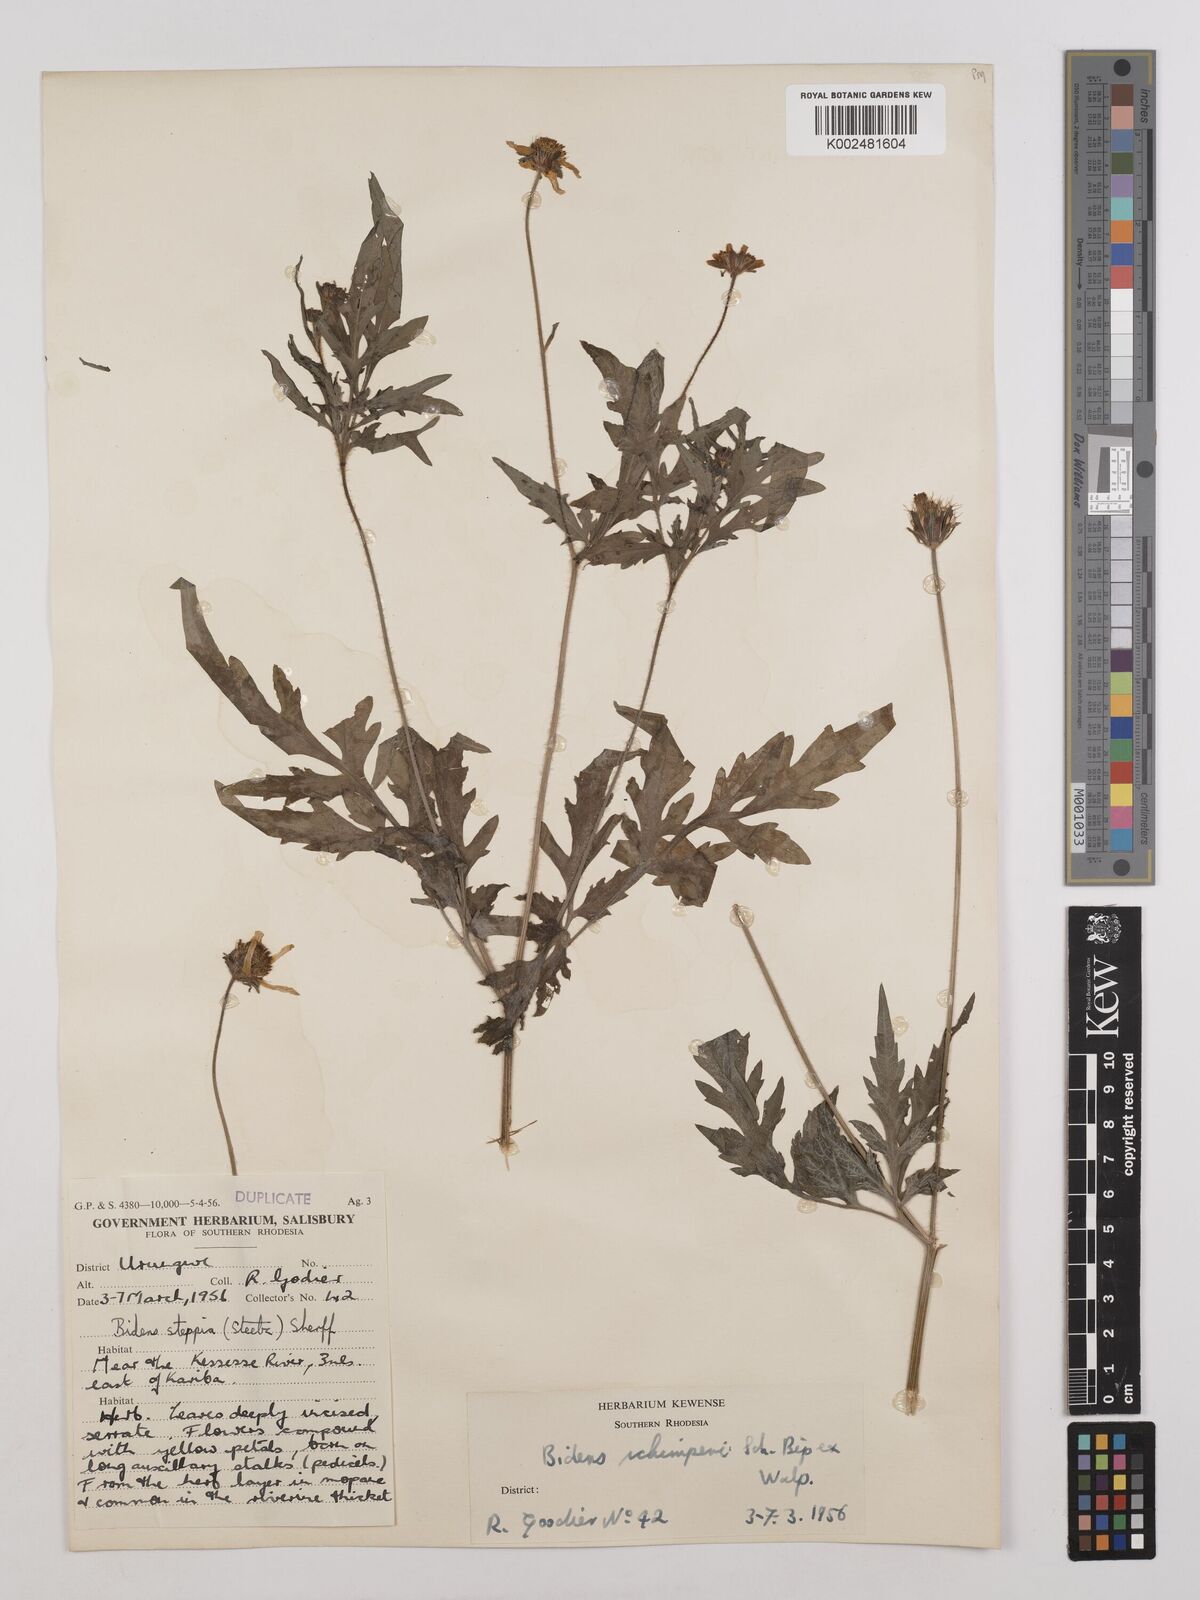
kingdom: Plantae
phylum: Tracheophyta
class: Magnoliopsida
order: Asterales
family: Asteraceae
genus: Bidens
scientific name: Bidens schimperi
